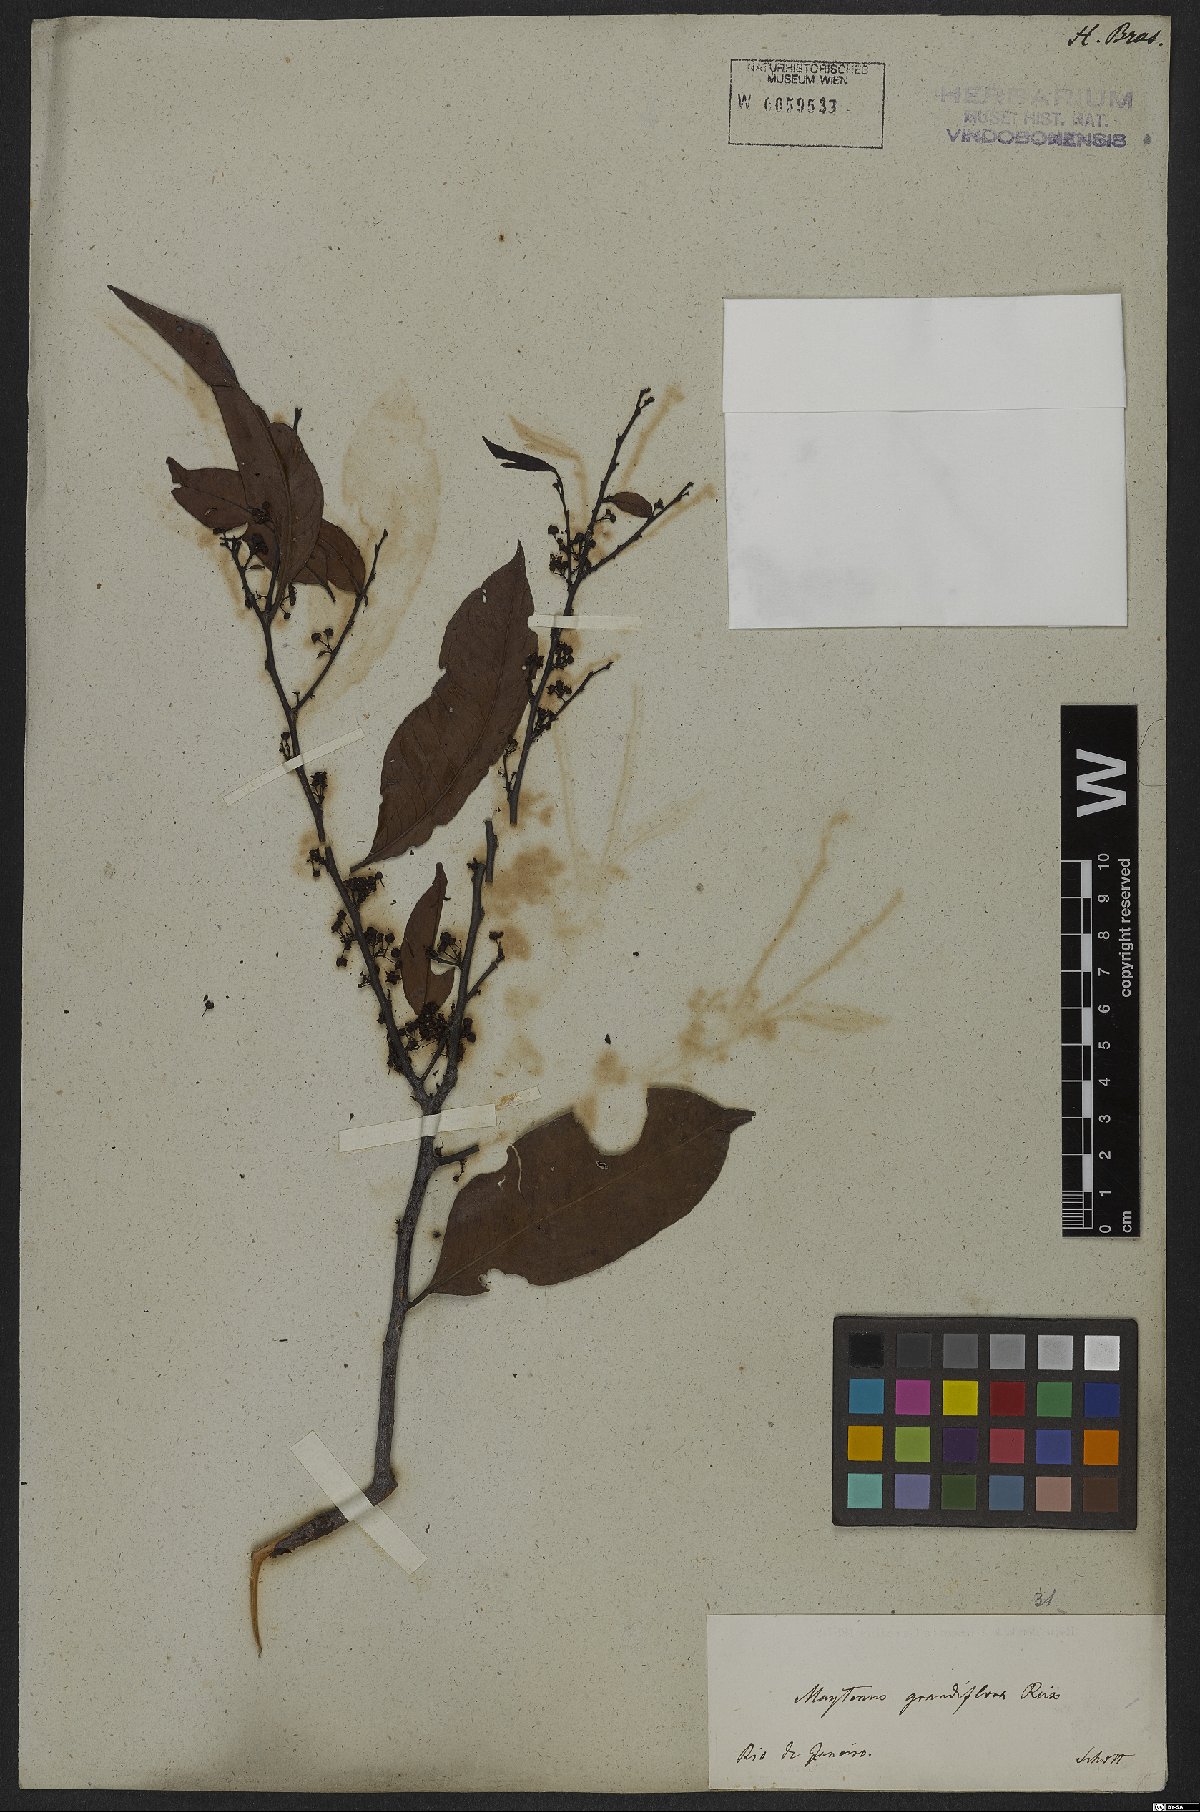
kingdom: Plantae
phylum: Tracheophyta
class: Magnoliopsida
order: Celastrales
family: Celastraceae
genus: Monteverdia
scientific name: Monteverdia communis
